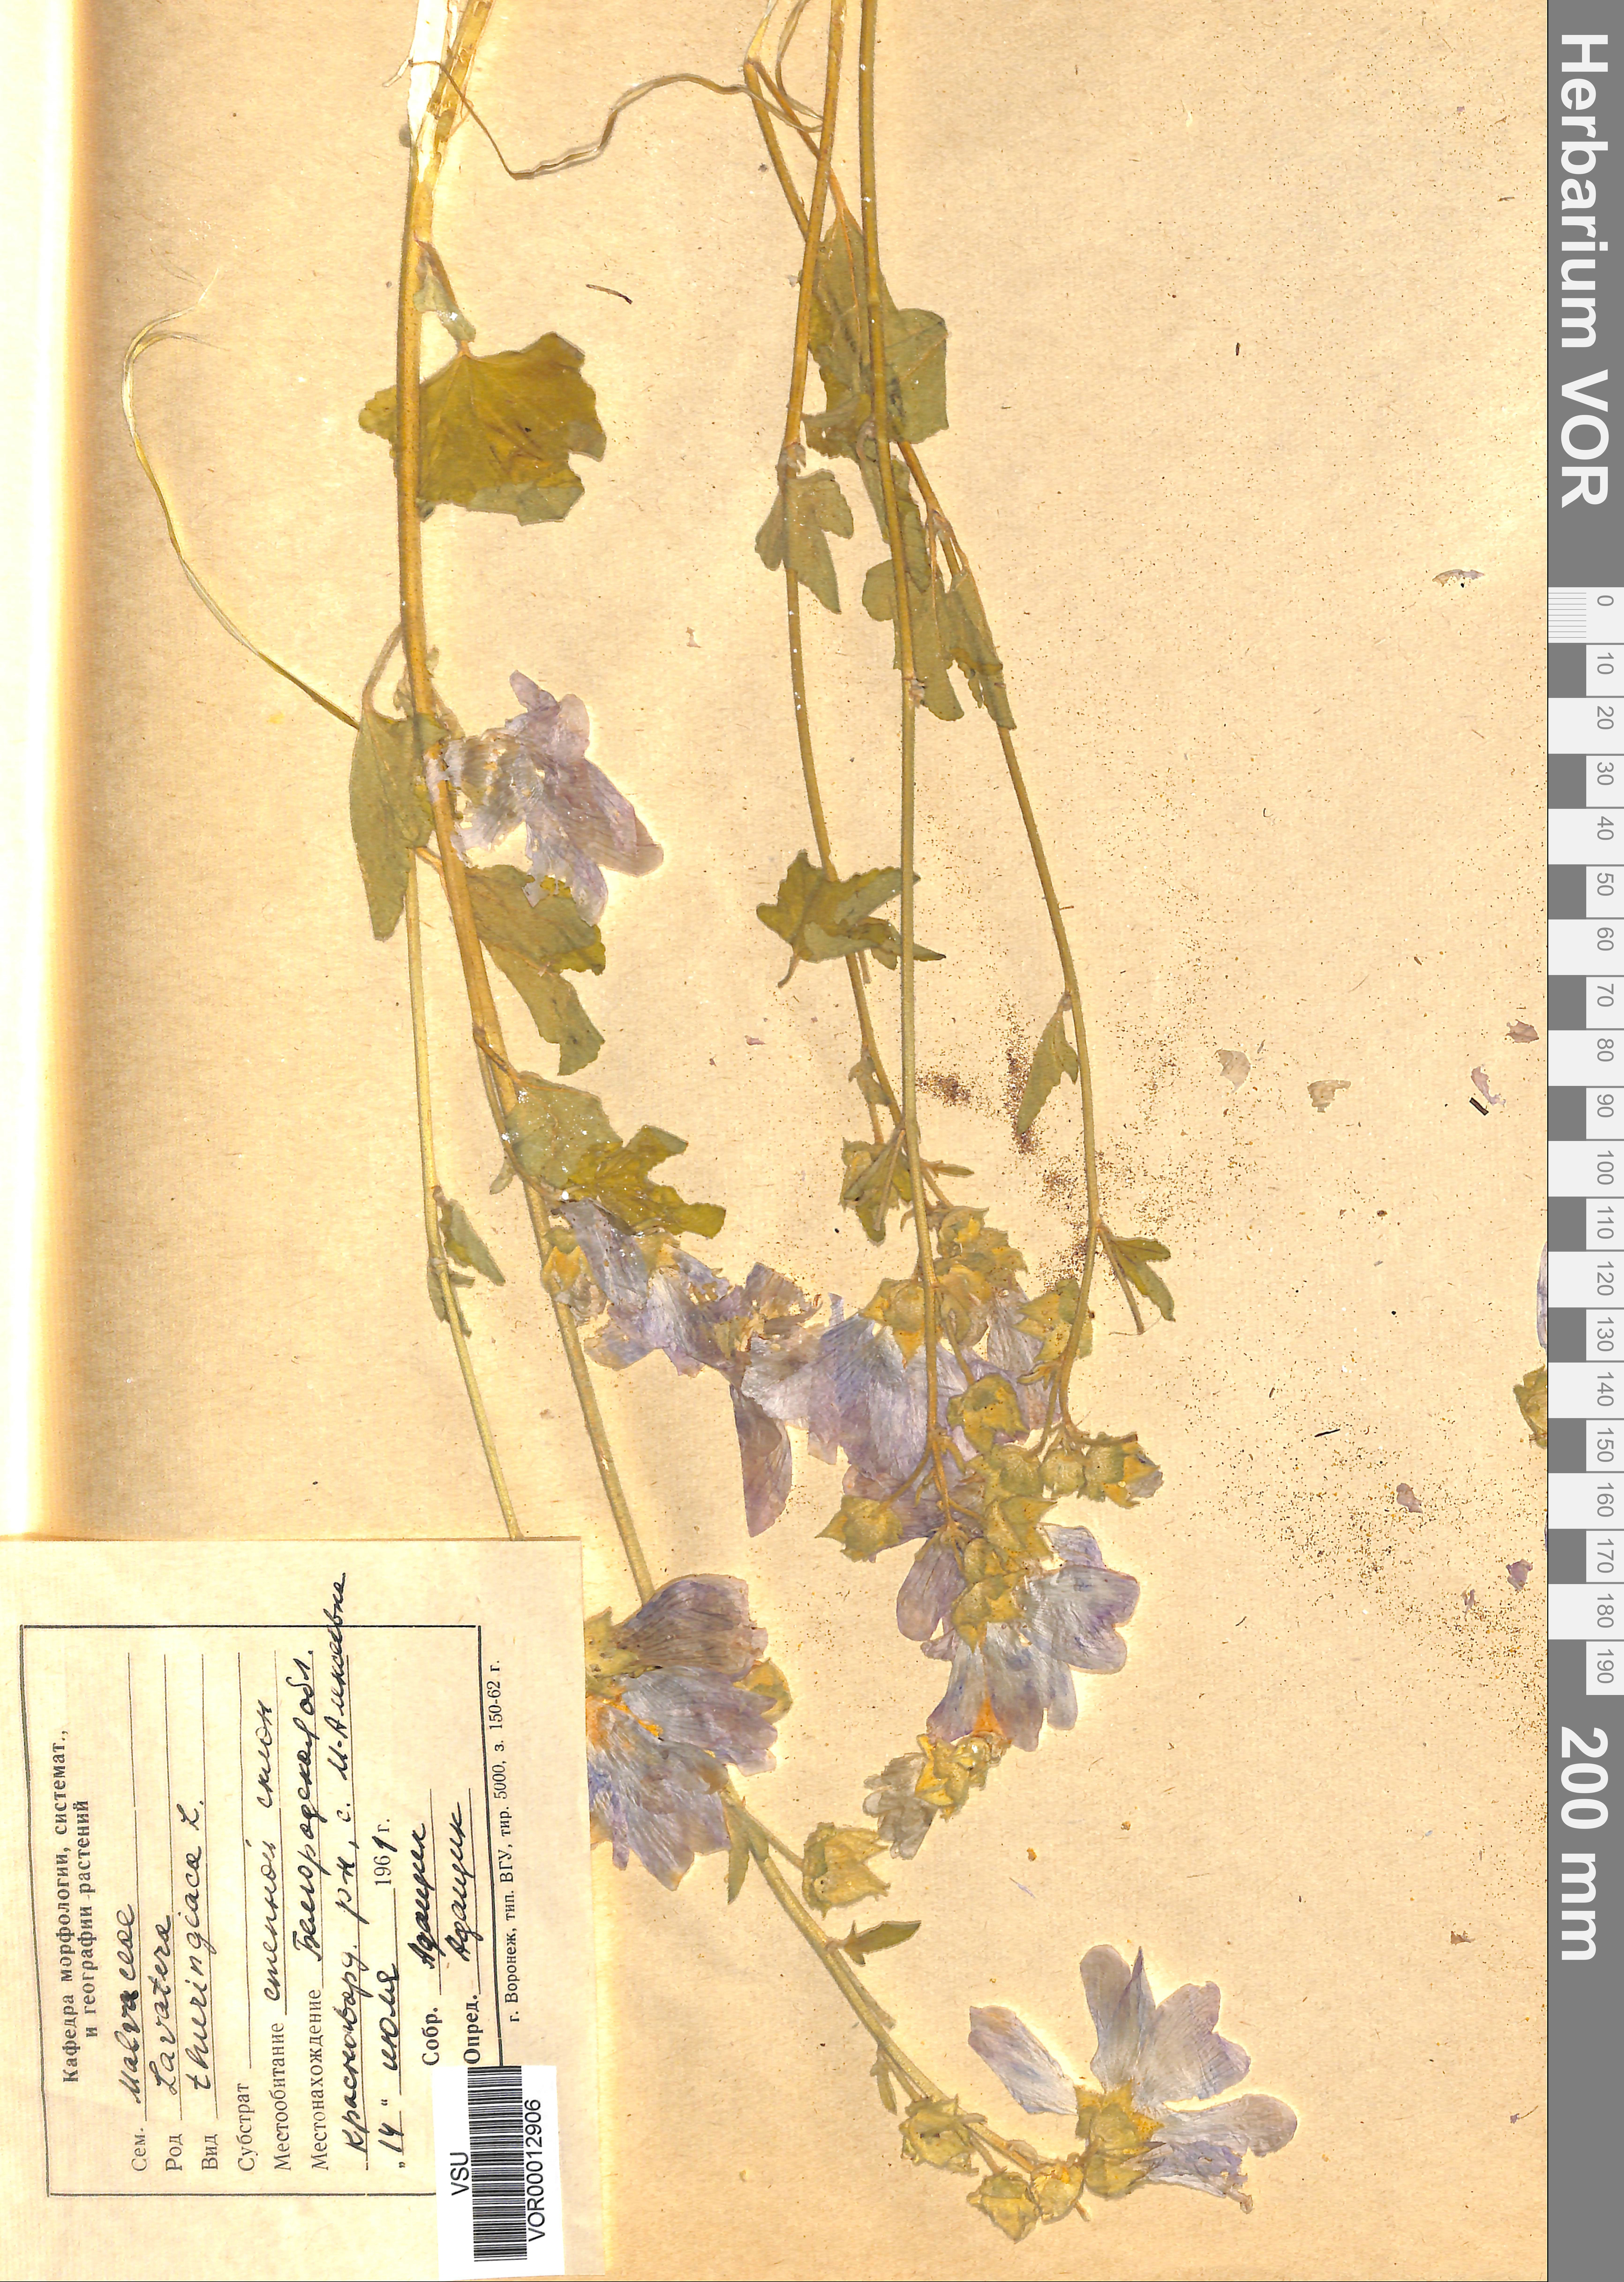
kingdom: Plantae
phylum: Tracheophyta
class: Magnoliopsida
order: Malvales
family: Malvaceae
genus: Malva
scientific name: Malva thuringiaca
